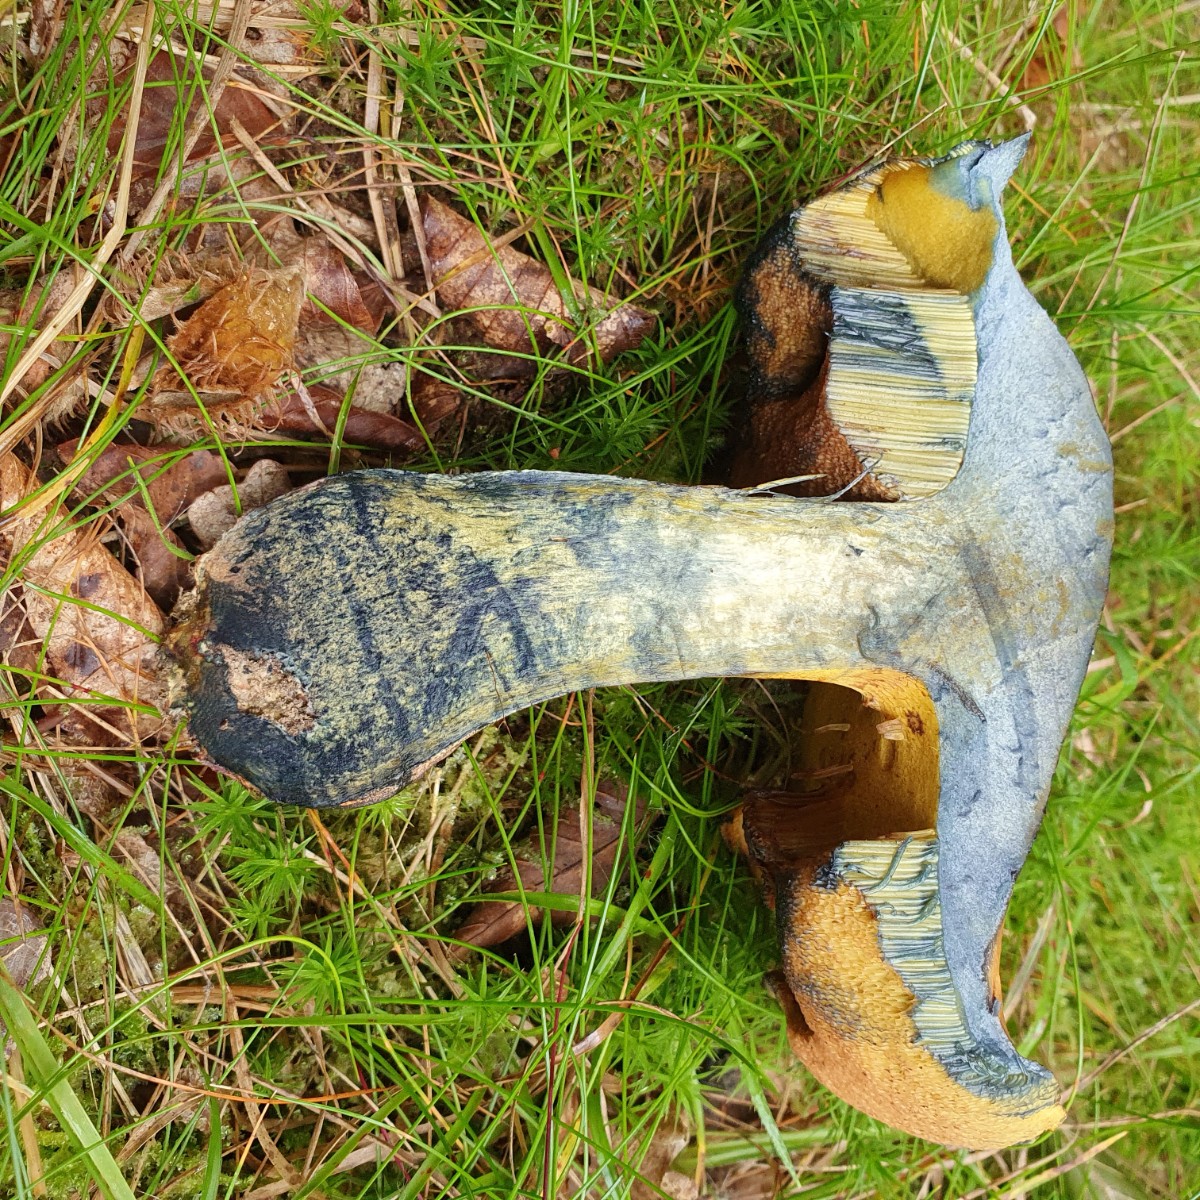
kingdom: Fungi
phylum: Basidiomycota
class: Agaricomycetes
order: Boletales
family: Boletaceae
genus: Neoboletus
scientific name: Neoboletus
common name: indigorørhat
